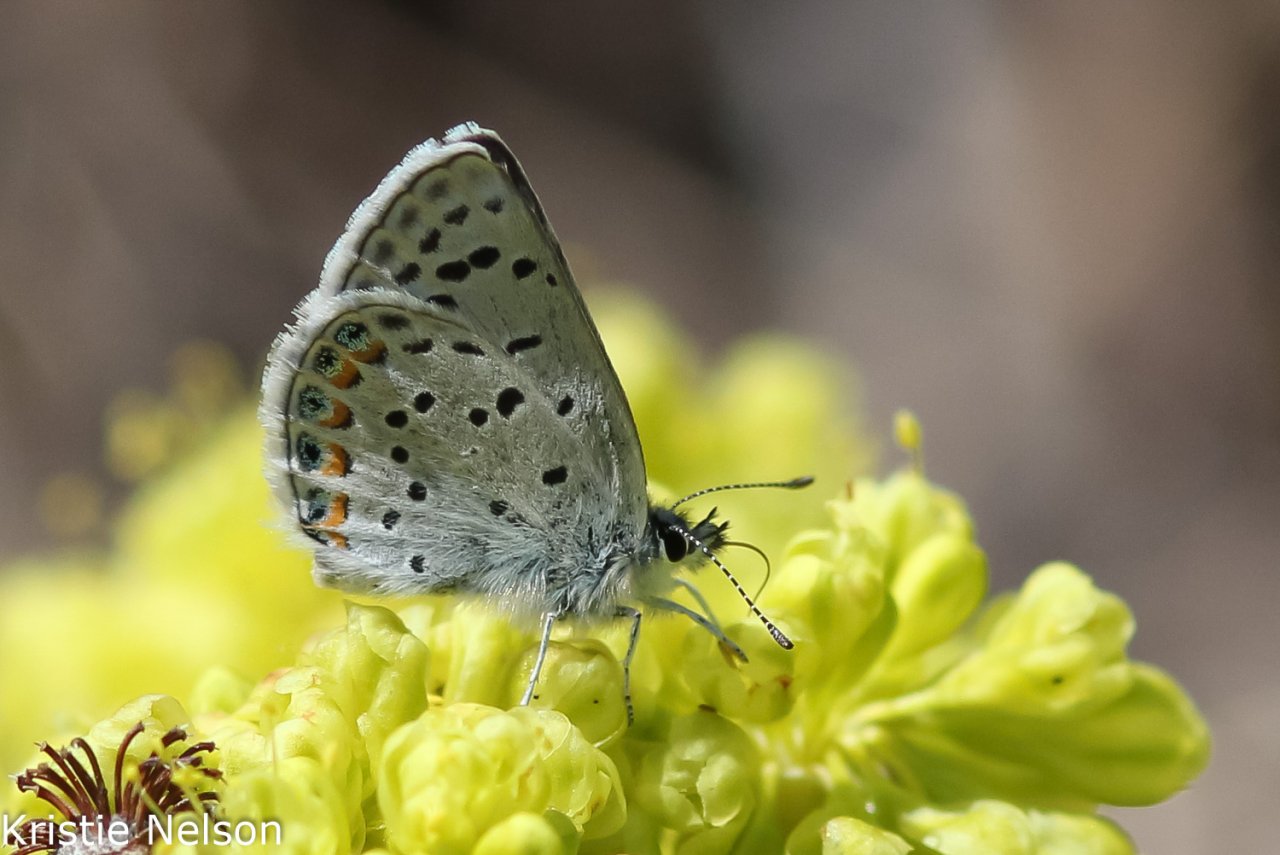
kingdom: Animalia
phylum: Arthropoda
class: Insecta
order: Lepidoptera
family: Lycaenidae
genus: Plebejus
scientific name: Plebejus
